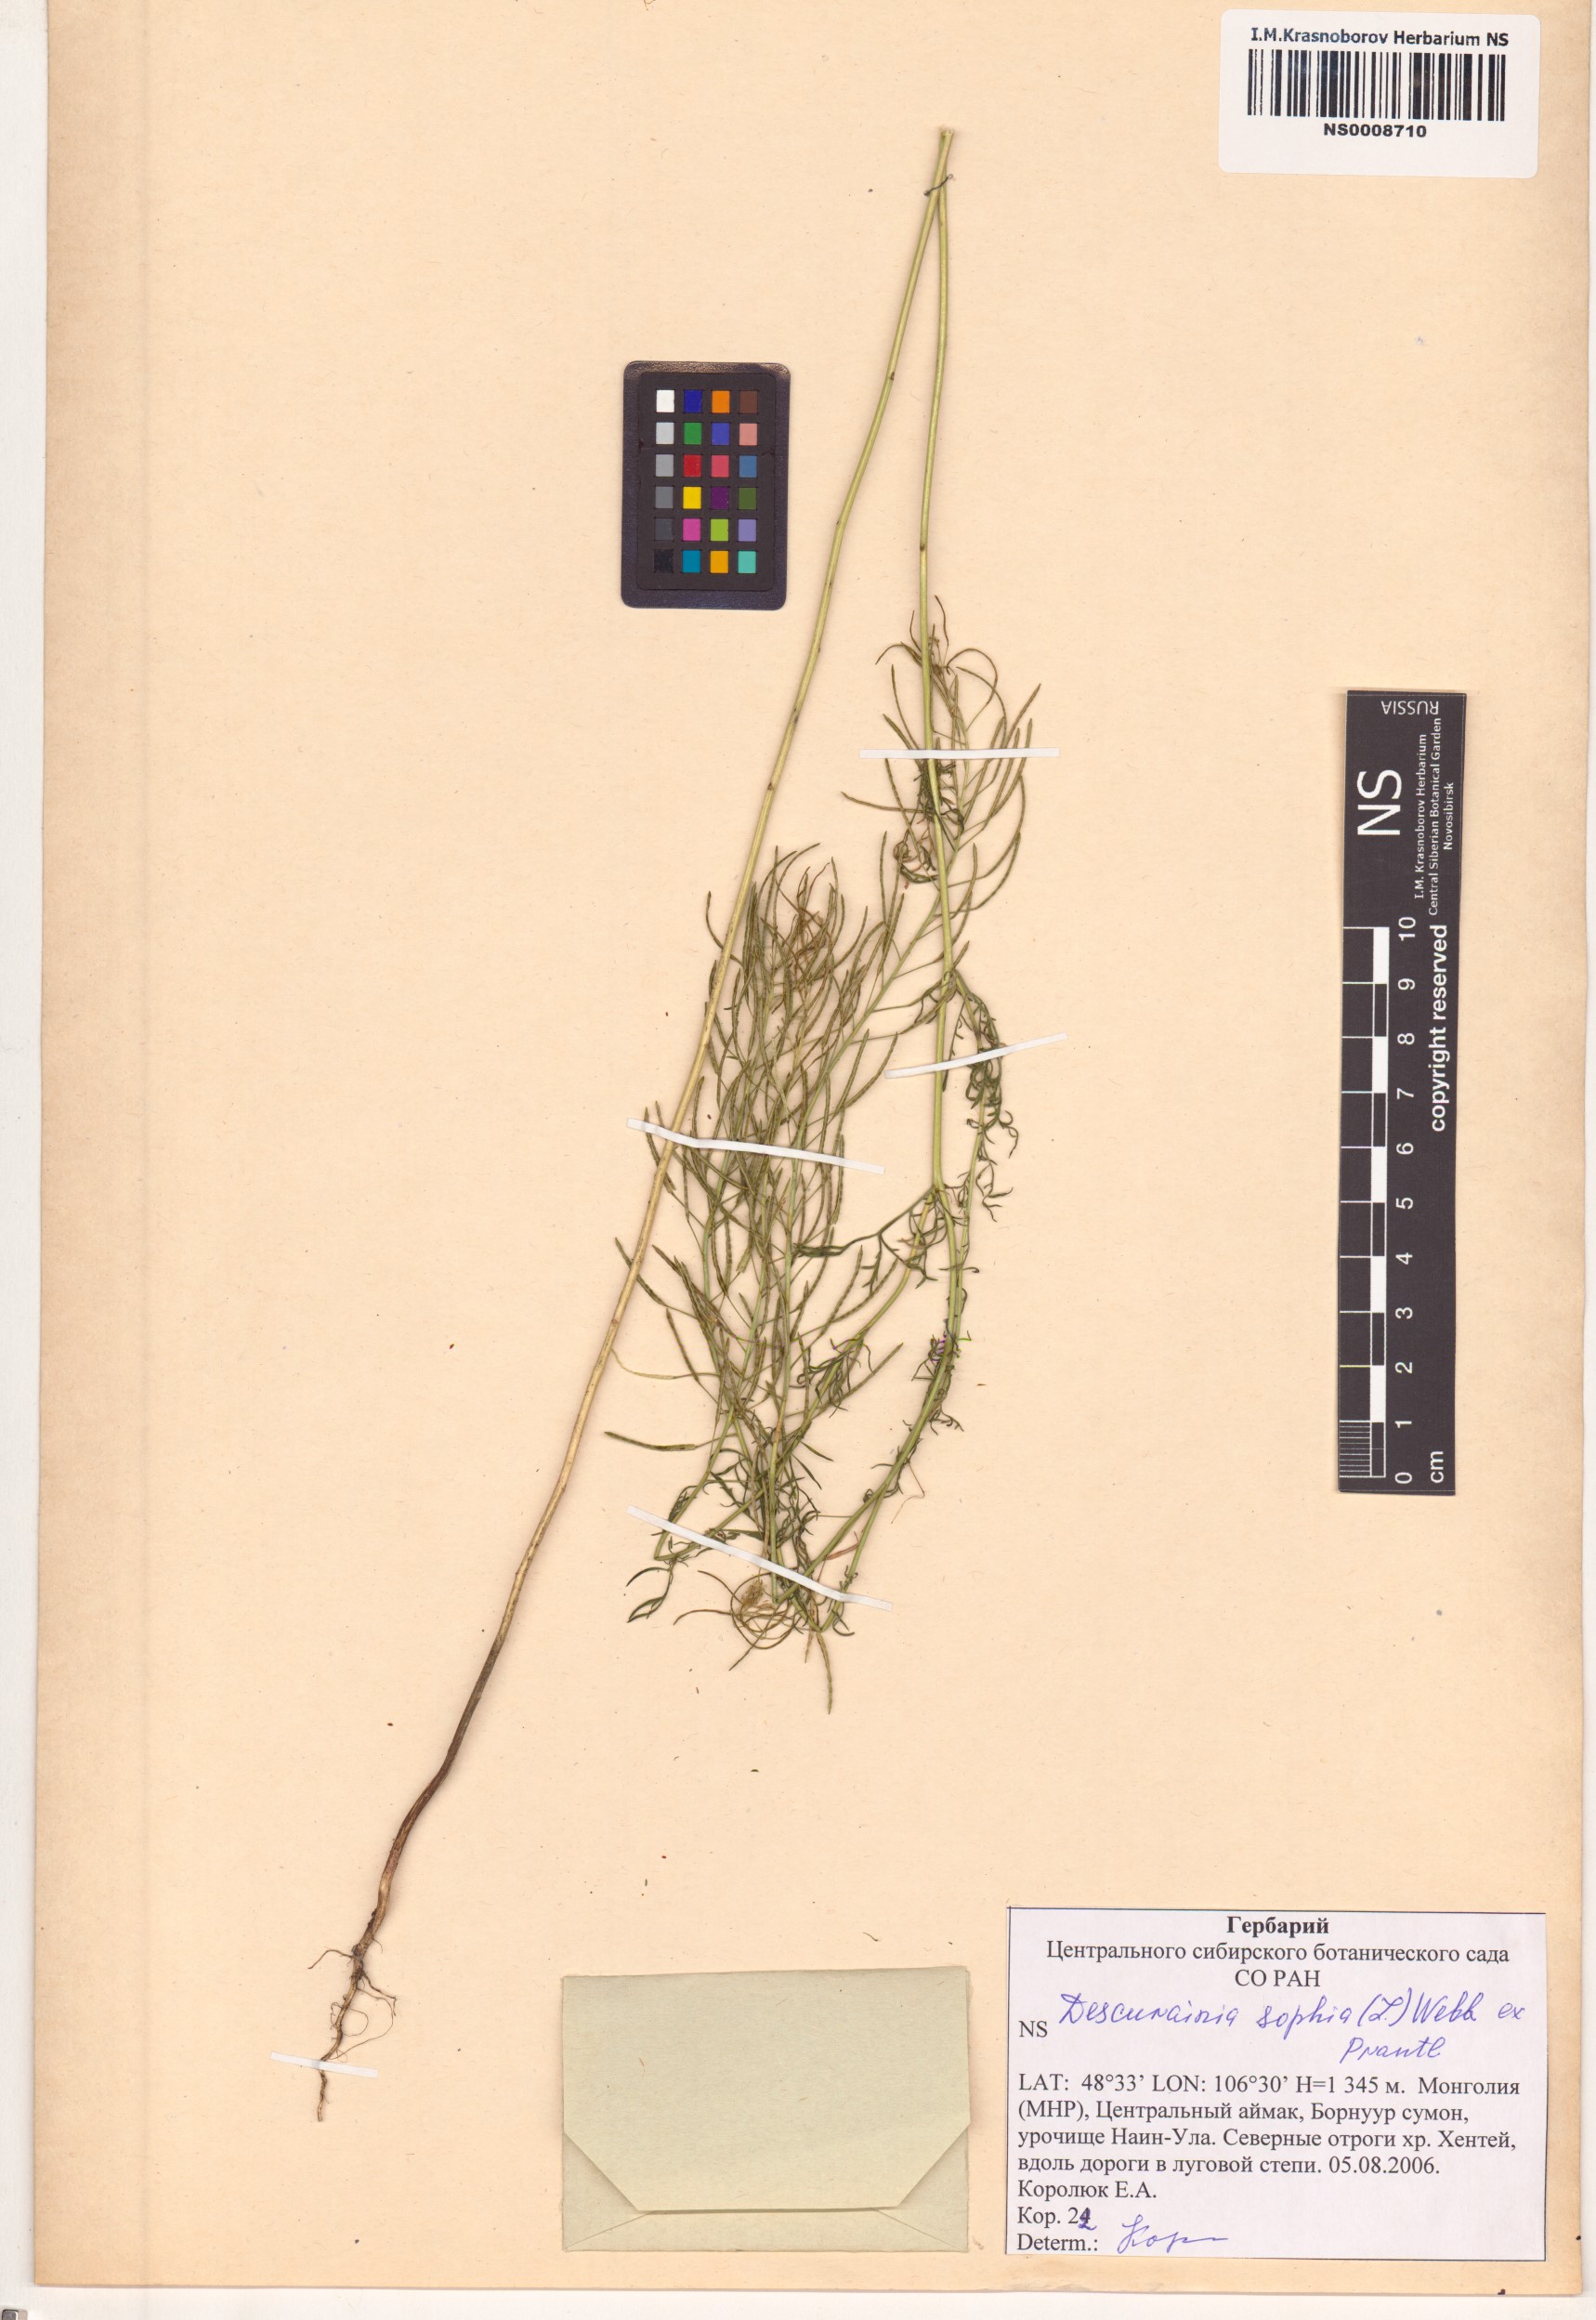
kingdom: Plantae
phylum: Tracheophyta
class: Magnoliopsida
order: Brassicales
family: Brassicaceae
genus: Descurainia
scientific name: Descurainia sophia
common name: Flixweed
